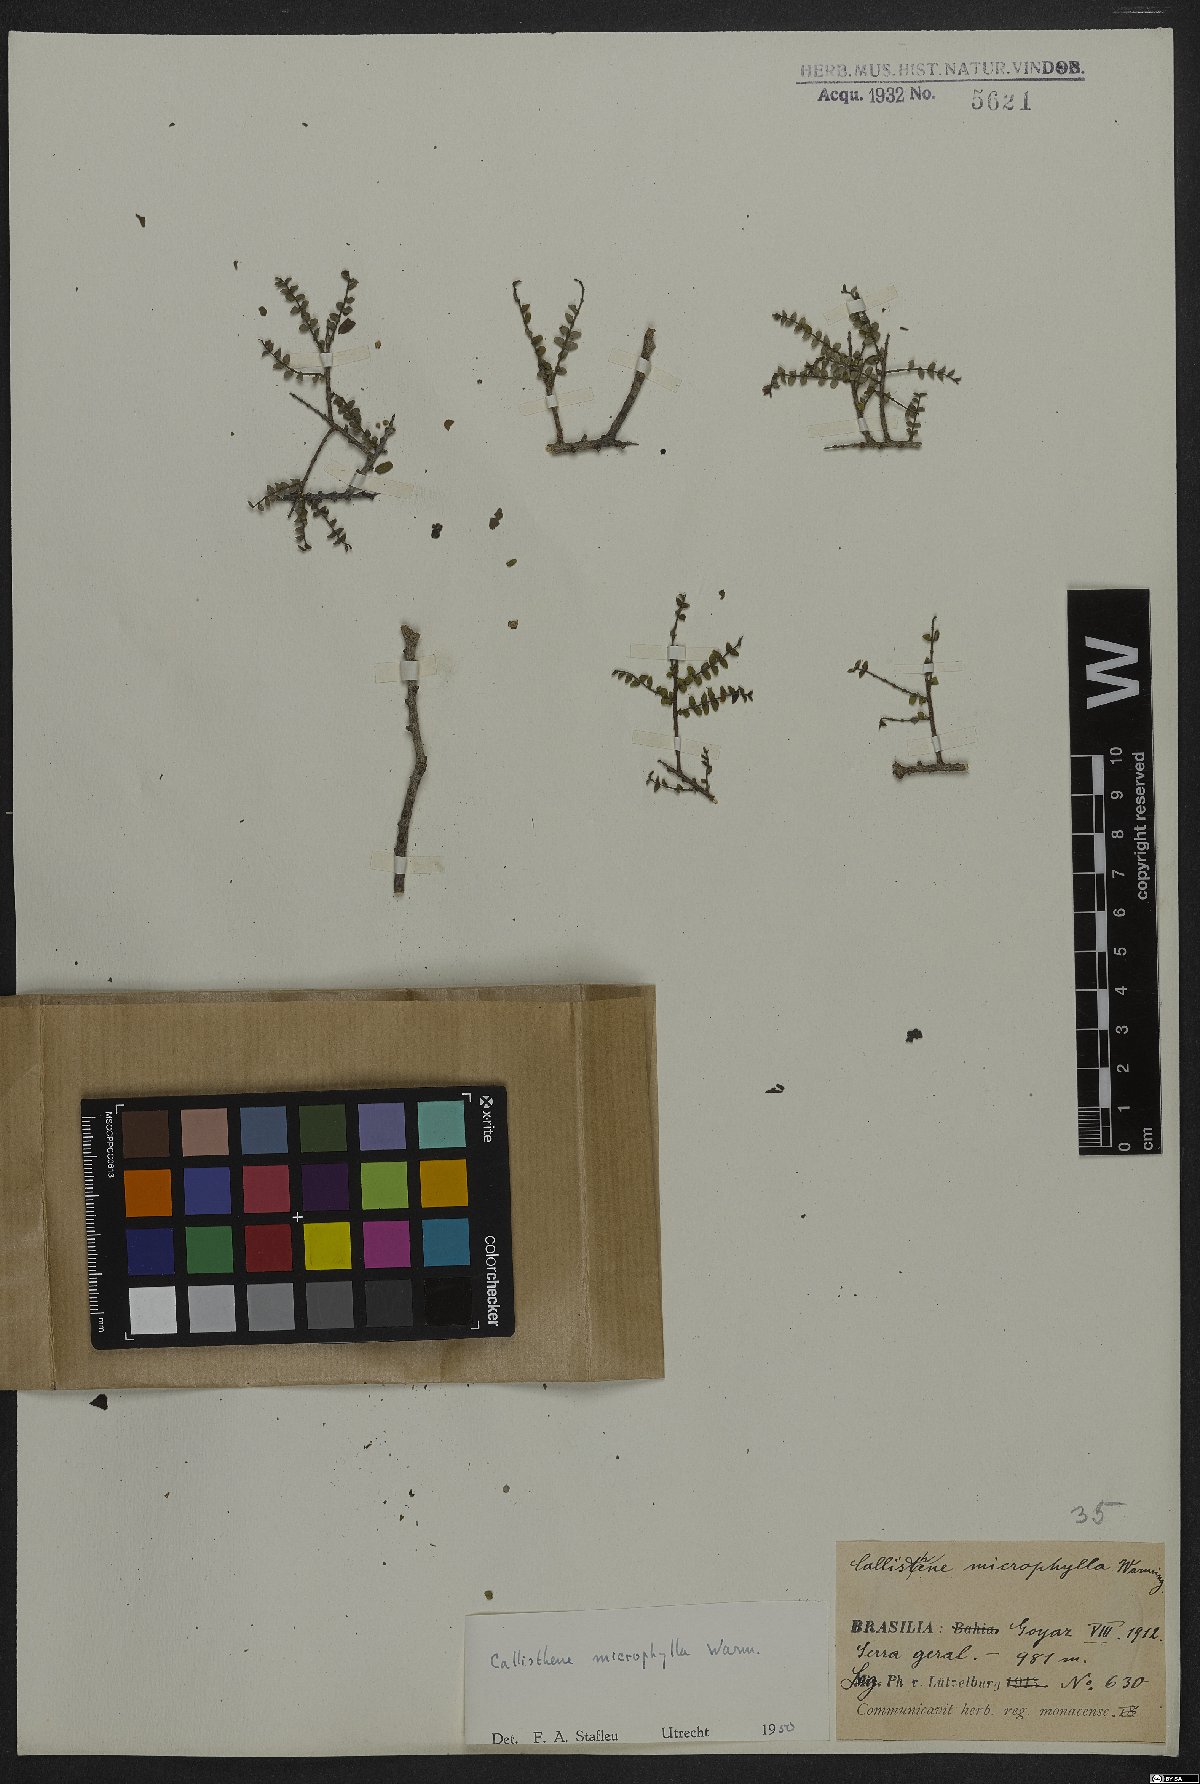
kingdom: Plantae
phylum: Tracheophyta
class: Magnoliopsida
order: Myrtales
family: Vochysiaceae
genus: Callisthene
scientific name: Callisthene microphylla
